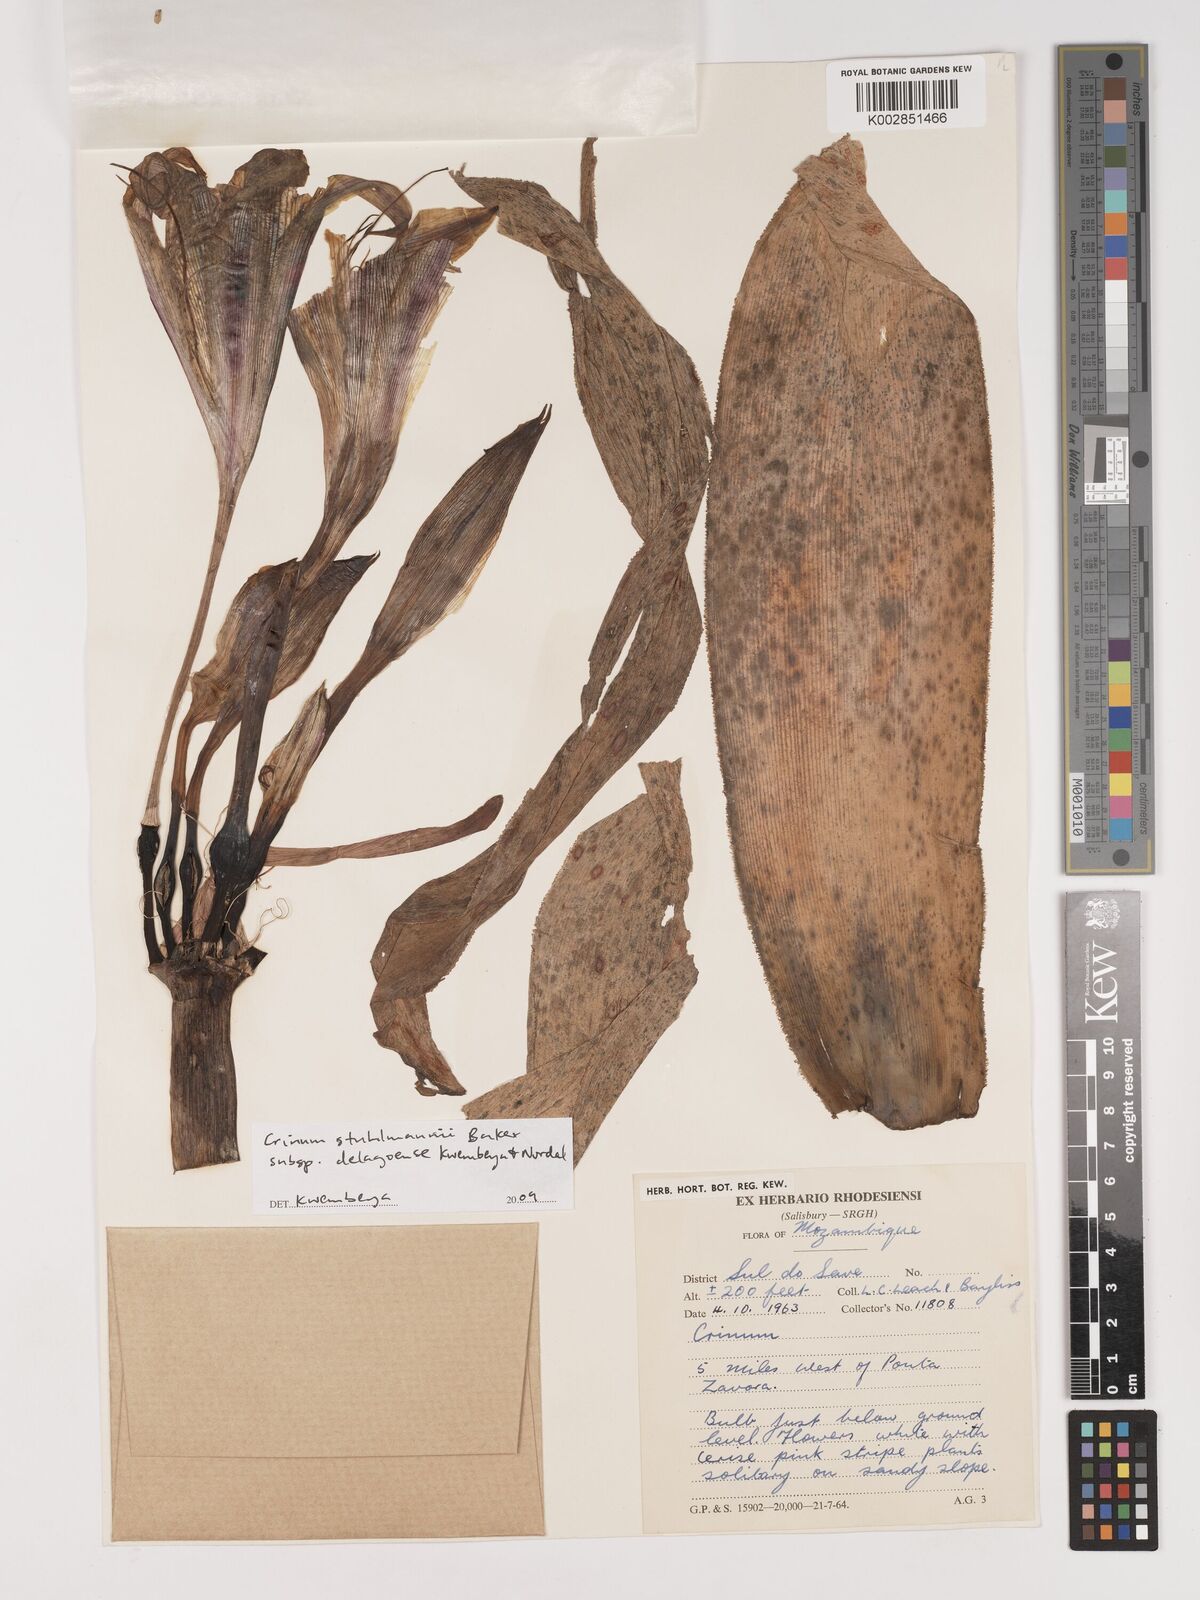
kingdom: Plantae
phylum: Tracheophyta
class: Liliopsida
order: Asparagales
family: Amaryllidaceae
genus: Crinum
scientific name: Crinum stuhlmannii
